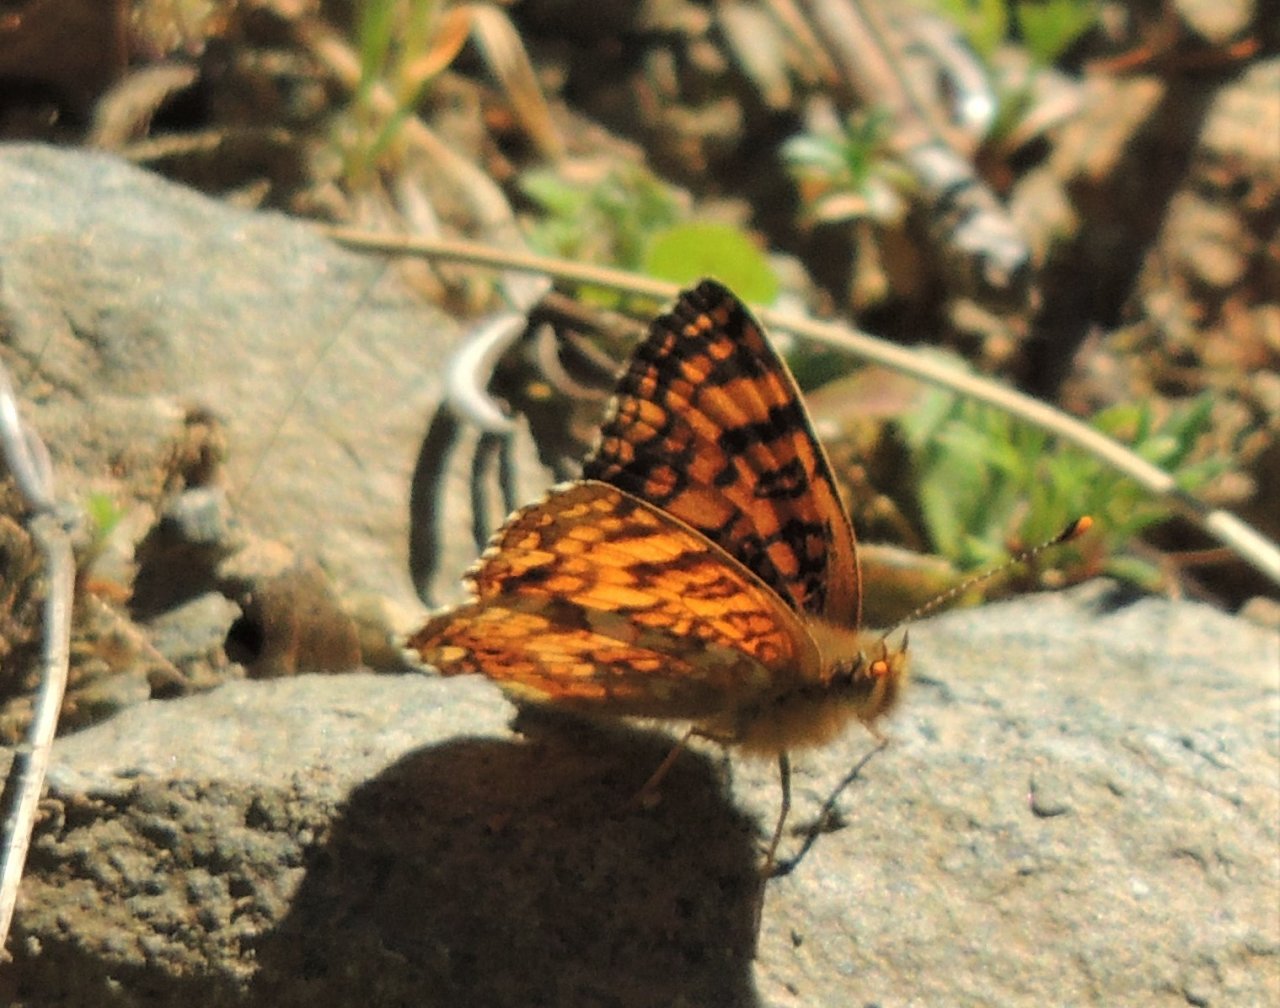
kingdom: Animalia
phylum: Arthropoda
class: Insecta
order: Lepidoptera
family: Nymphalidae
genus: Eresia
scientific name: Eresia aveyrona
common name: Mylitta Crescent
